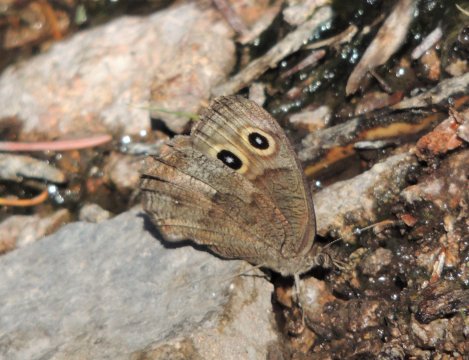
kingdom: Animalia
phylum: Arthropoda
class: Insecta
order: Lepidoptera
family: Nymphalidae
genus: Cercyonis
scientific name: Cercyonis pegala
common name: Common Wood-Nymph
